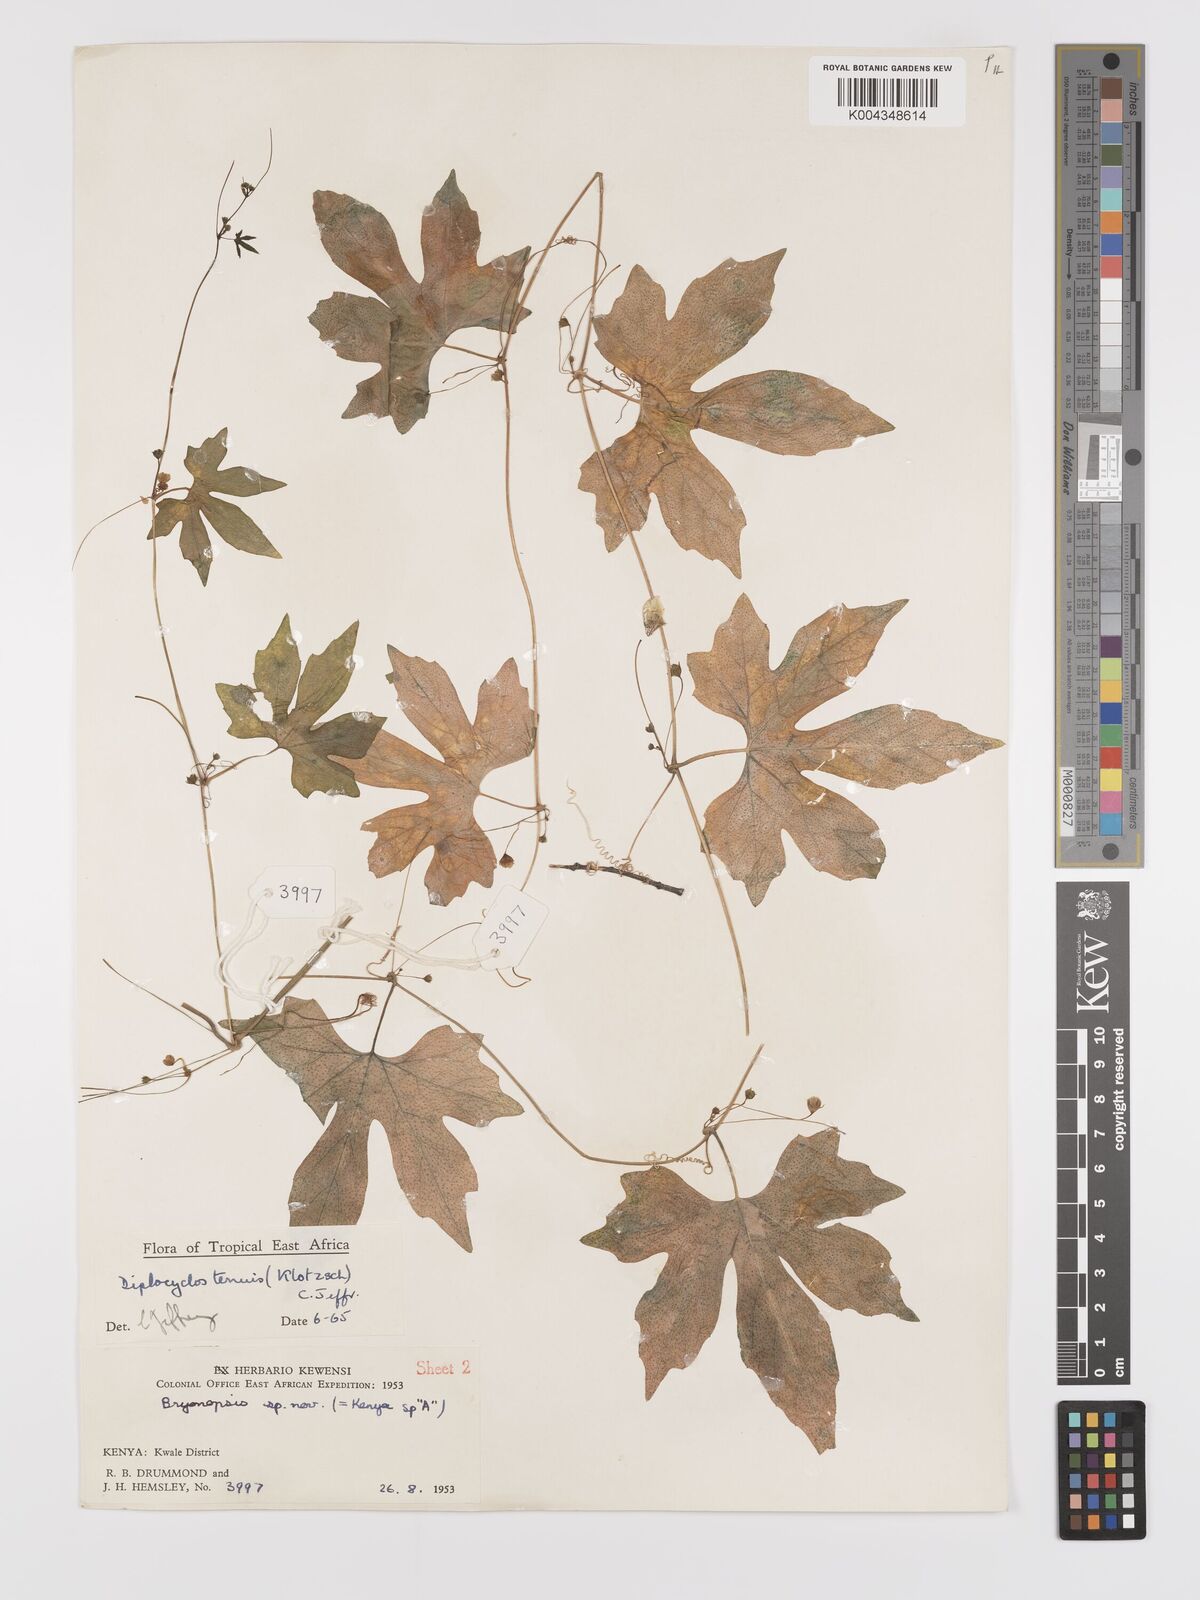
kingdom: Plantae
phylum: Tracheophyta
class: Magnoliopsida
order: Cucurbitales
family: Cucurbitaceae
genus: Diplocyclos
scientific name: Diplocyclos tenuis
